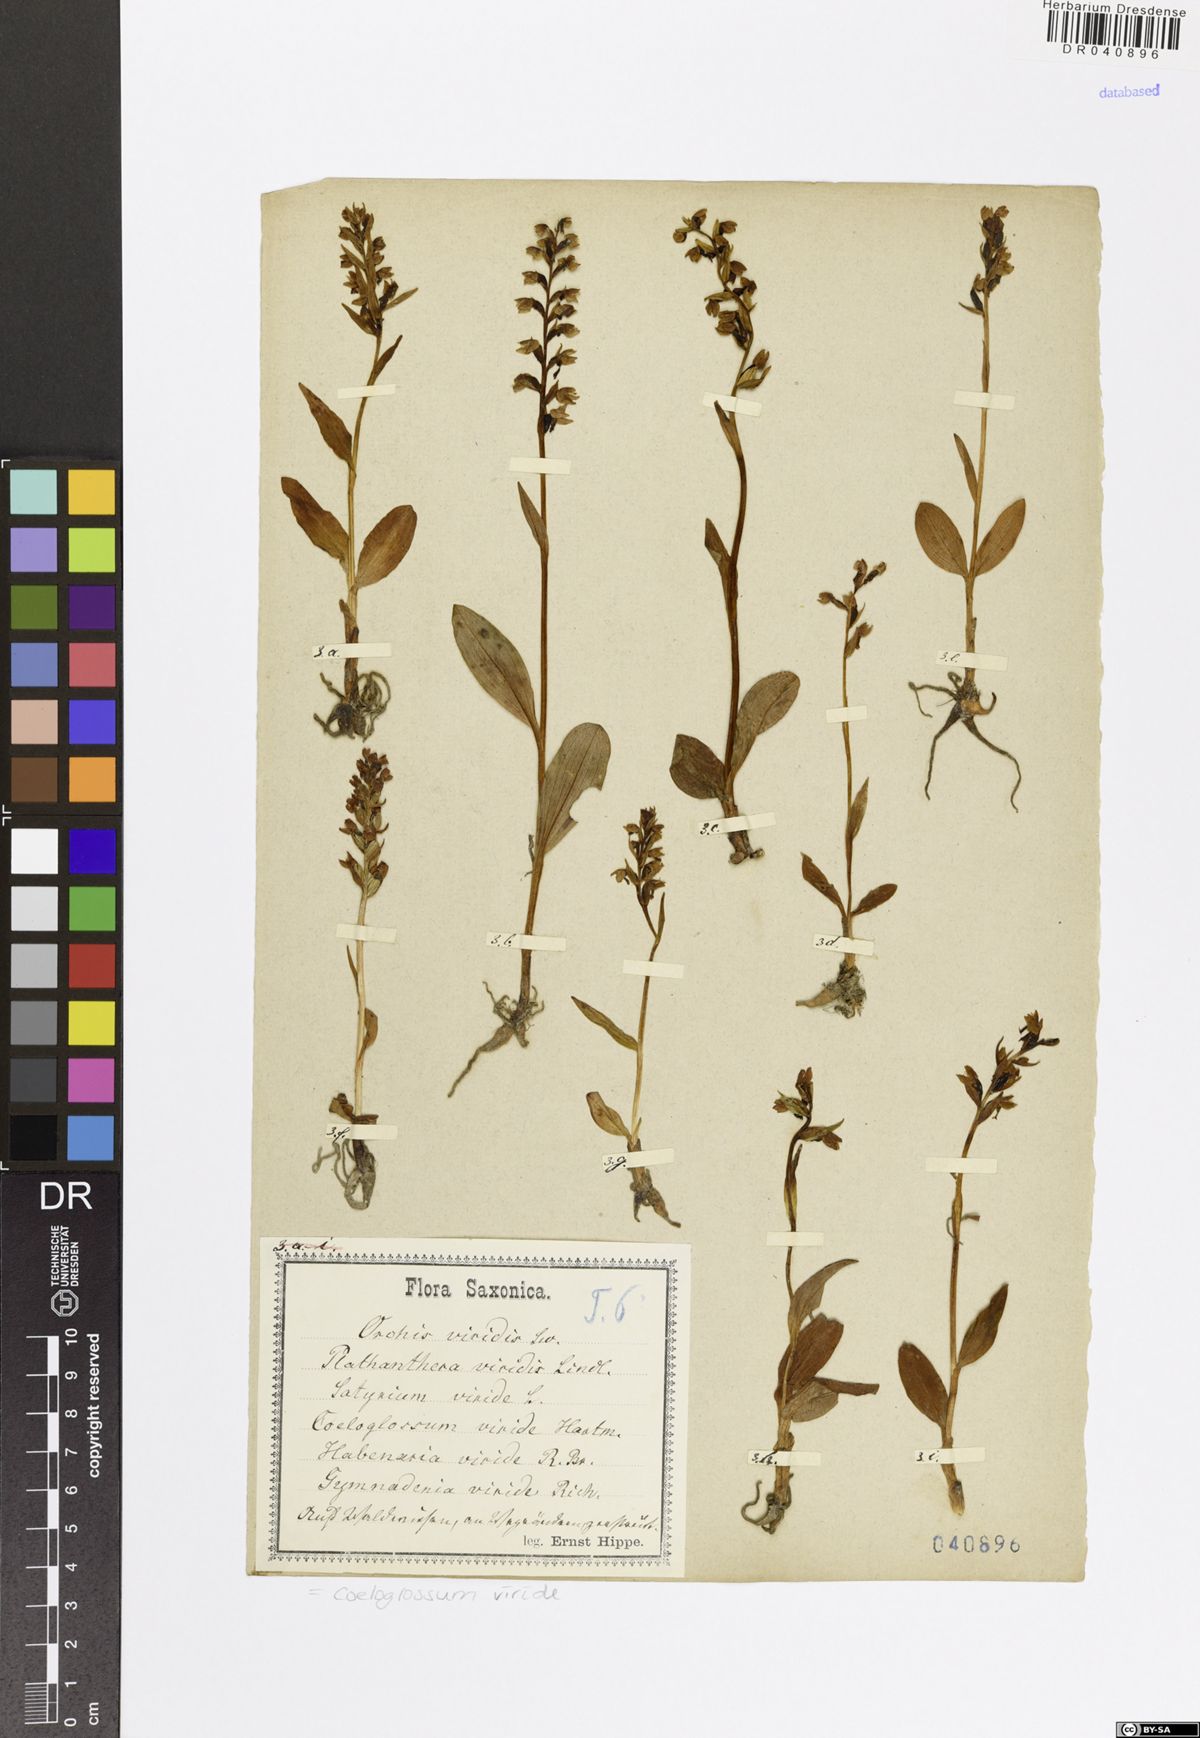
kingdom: Plantae
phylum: Tracheophyta
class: Liliopsida
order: Asparagales
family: Orchidaceae
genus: Dactylorhiza
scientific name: Dactylorhiza viridis
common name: Longbract frog orchid
